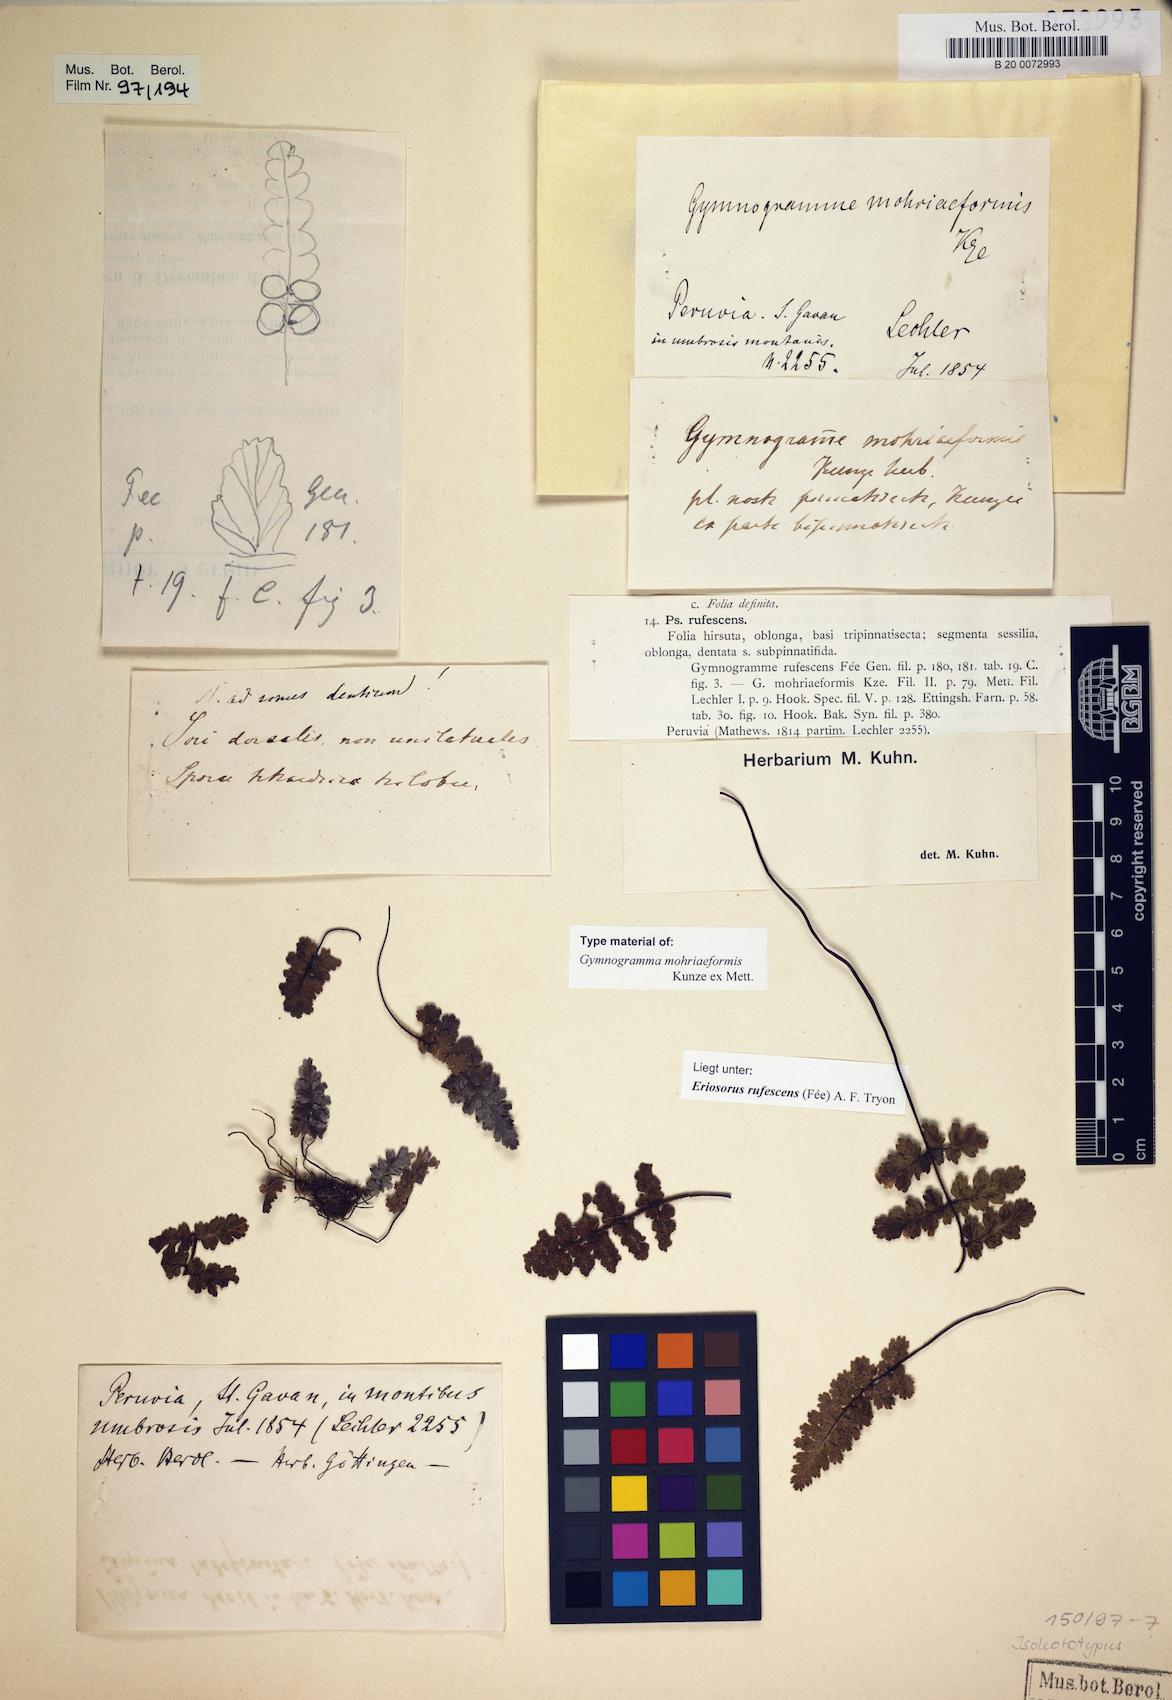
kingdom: Plantae
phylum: Tracheophyta
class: Polypodiopsida
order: Polypodiales
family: Pteridaceae
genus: Jamesonia
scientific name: Jamesonia rufescens
